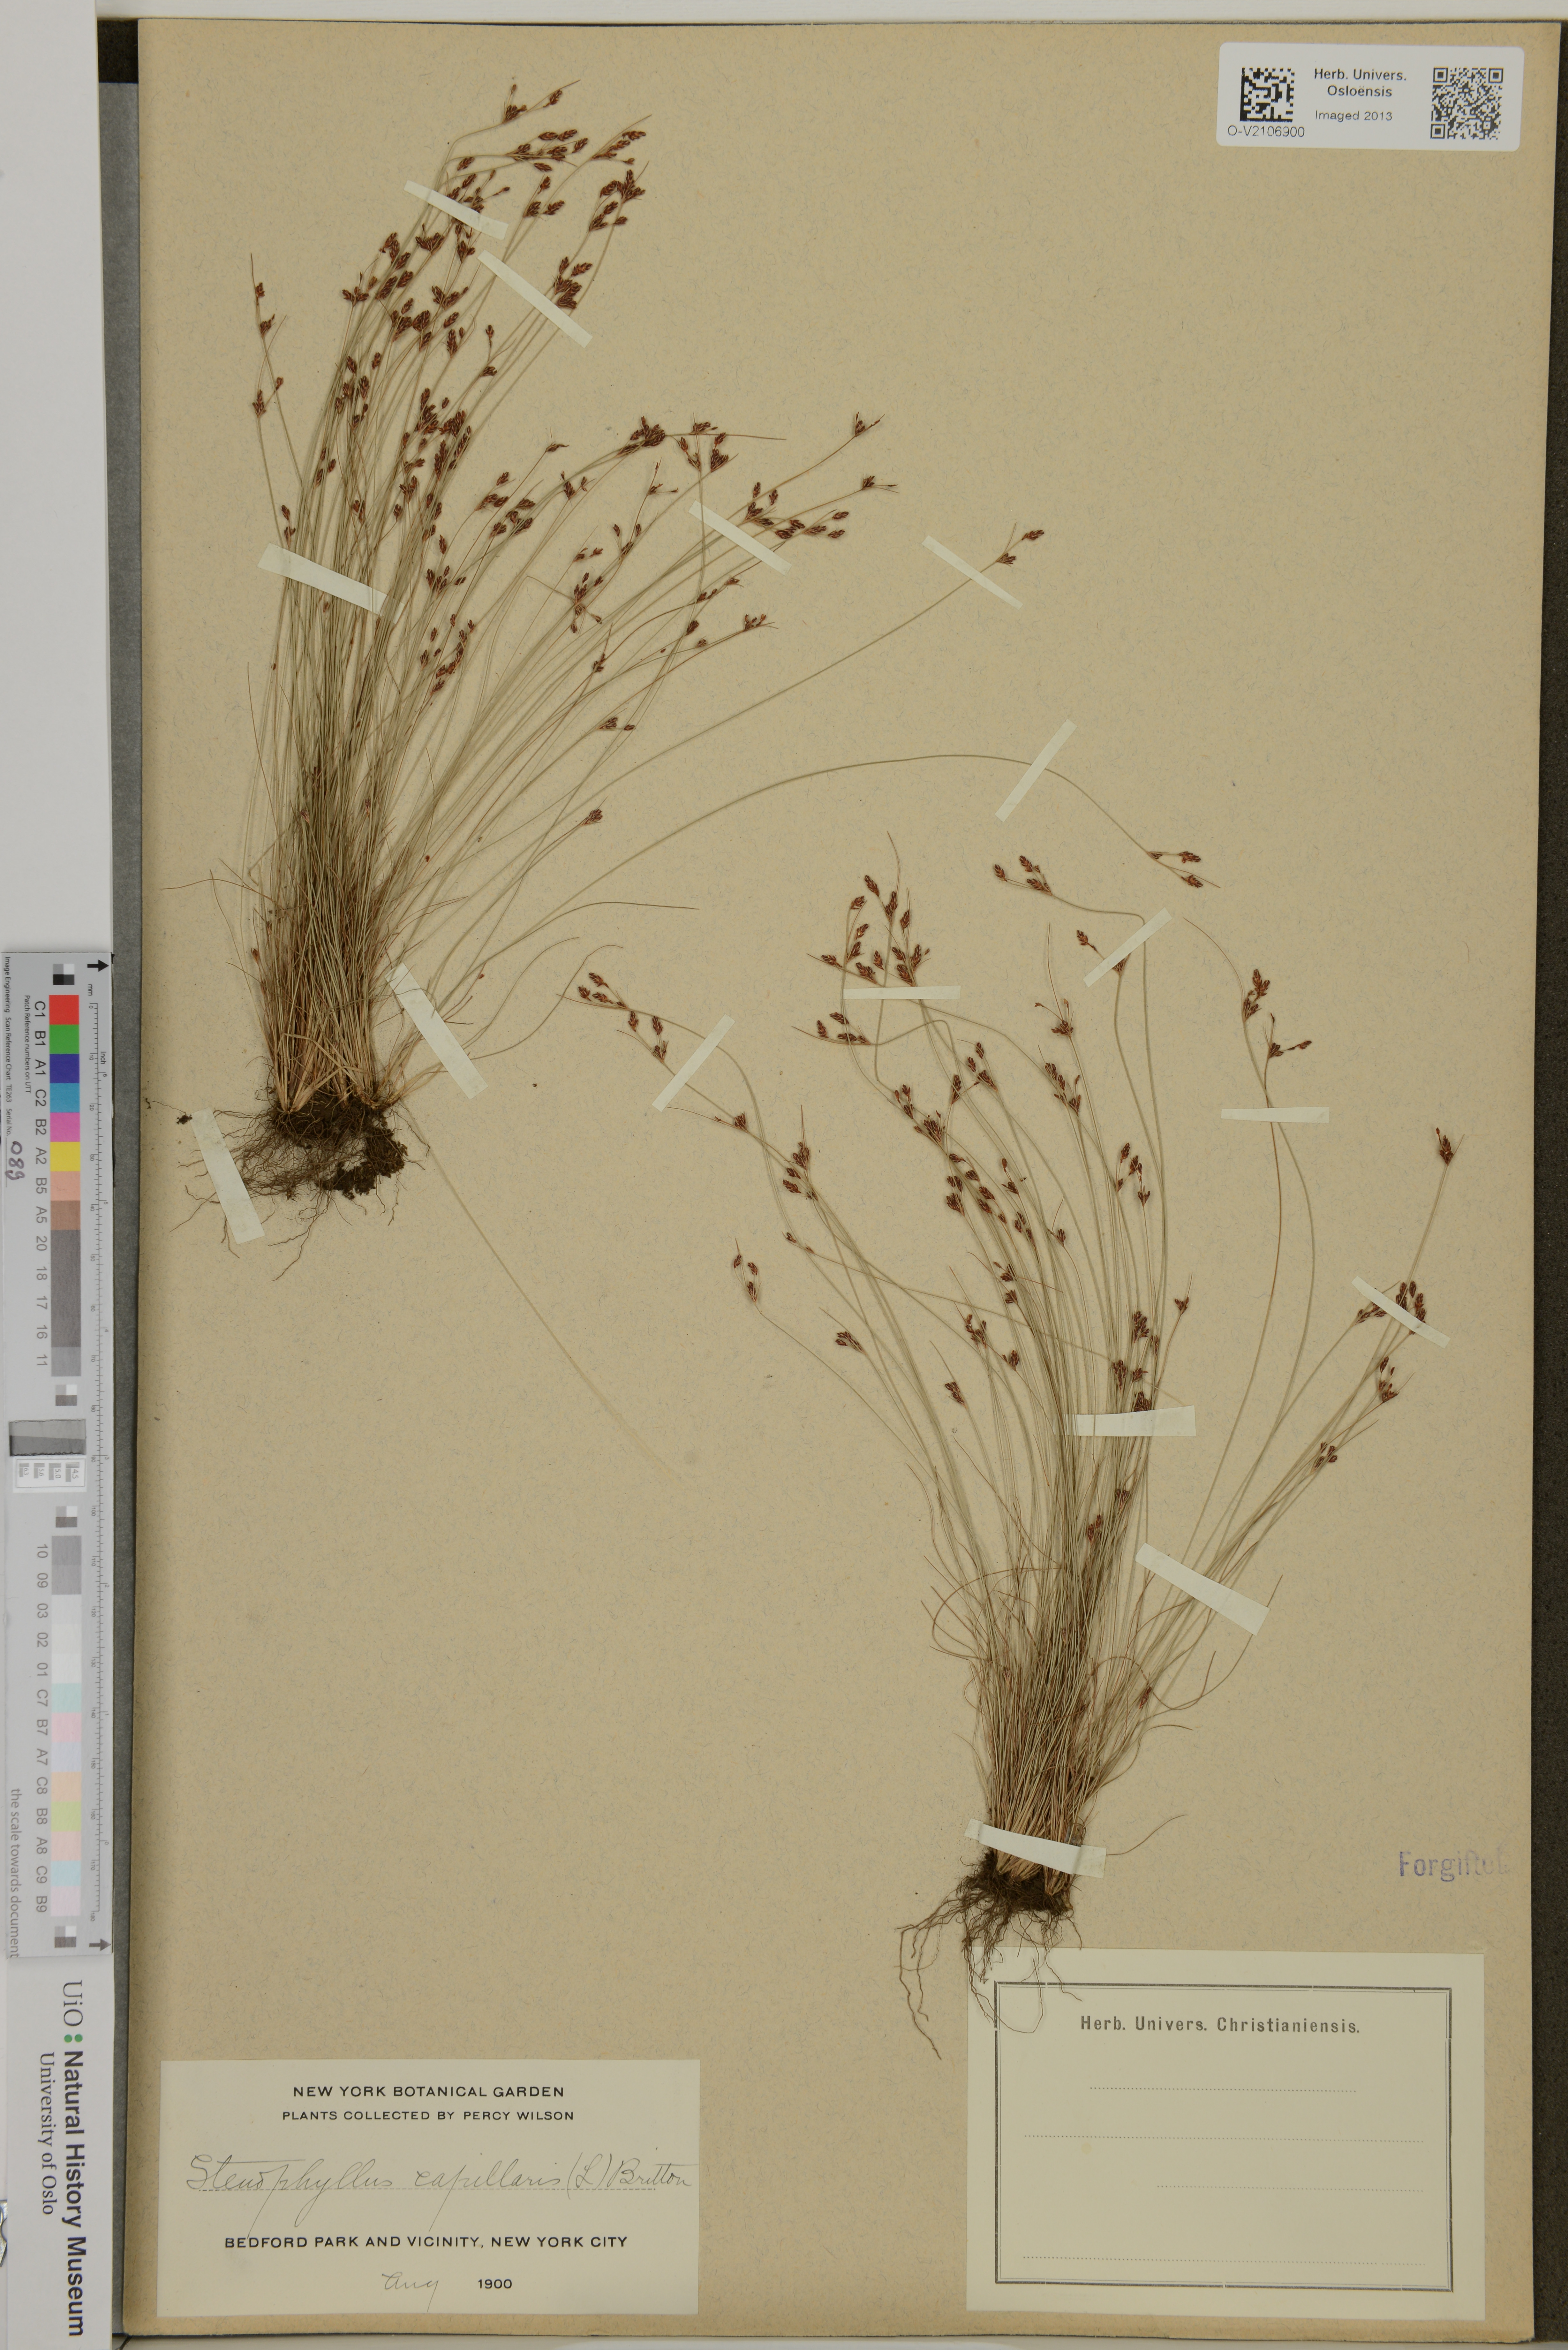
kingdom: Plantae
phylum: Tracheophyta
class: Liliopsida
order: Poales
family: Cyperaceae
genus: Bulbostylis
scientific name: Bulbostylis capillaris
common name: Densetuft hairsedge
